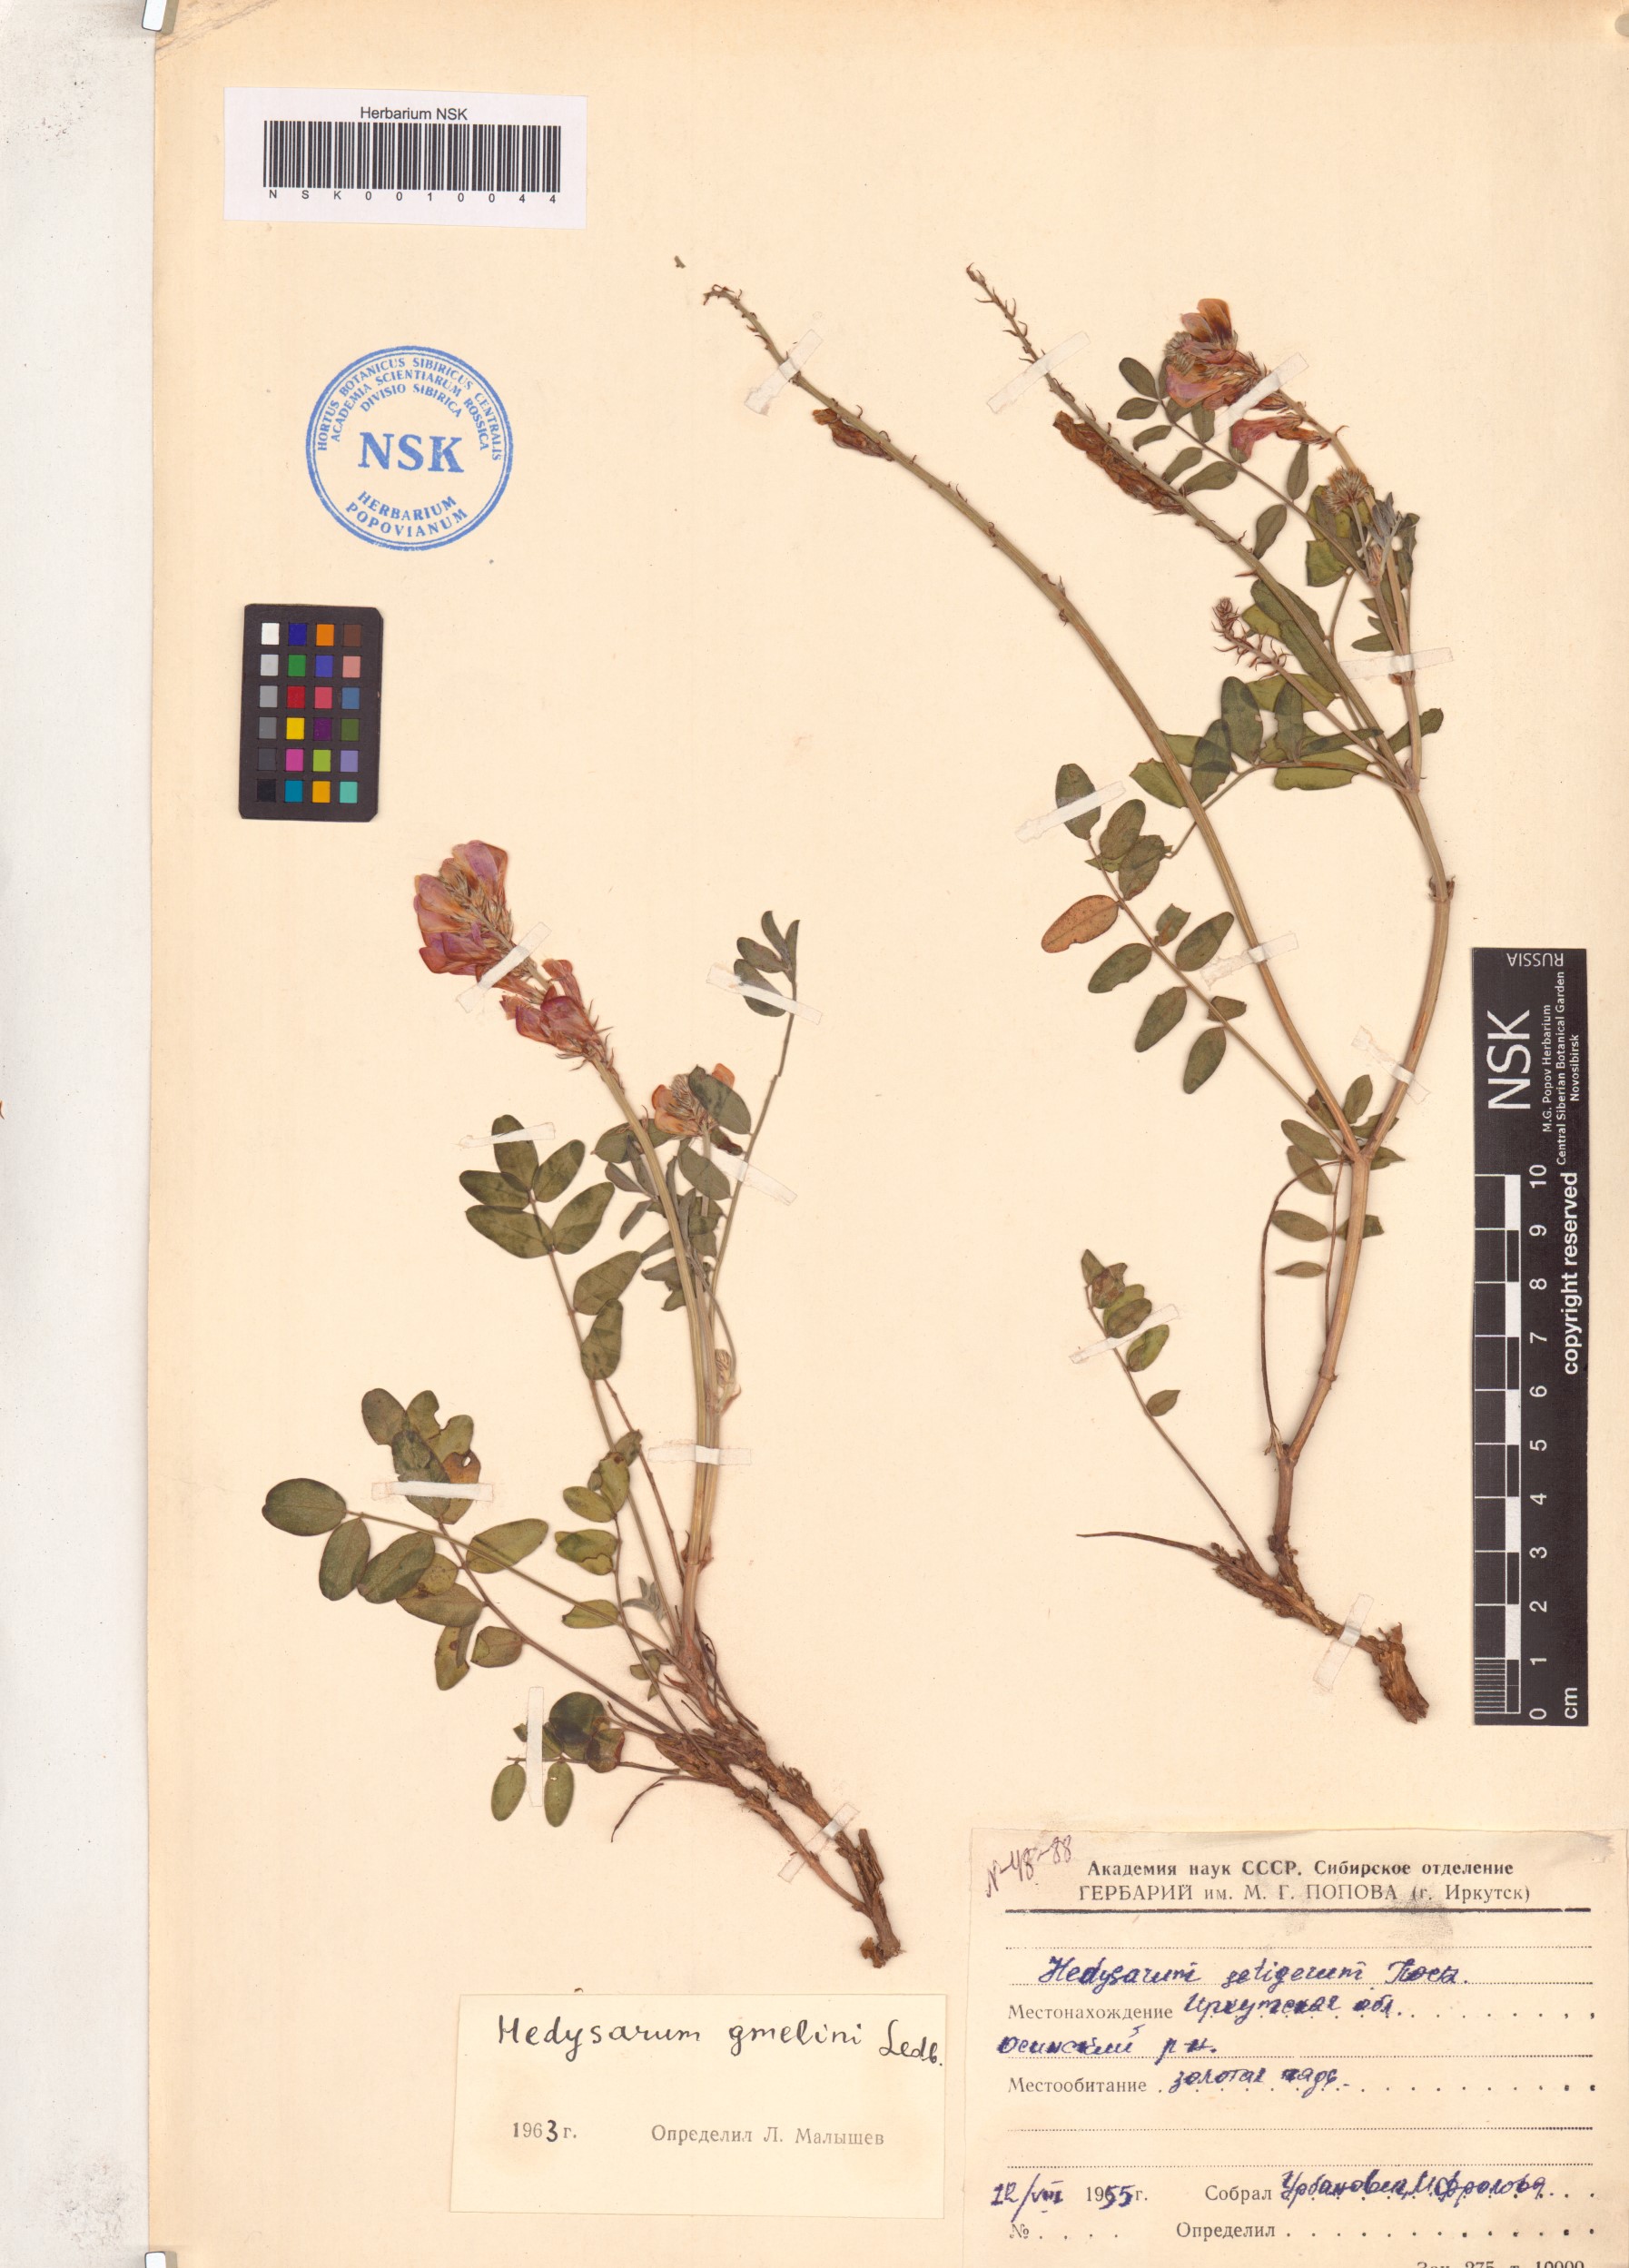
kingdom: Plantae
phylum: Tracheophyta
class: Magnoliopsida
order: Fabales
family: Fabaceae
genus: Hedysarum
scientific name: Hedysarum gmelinii
